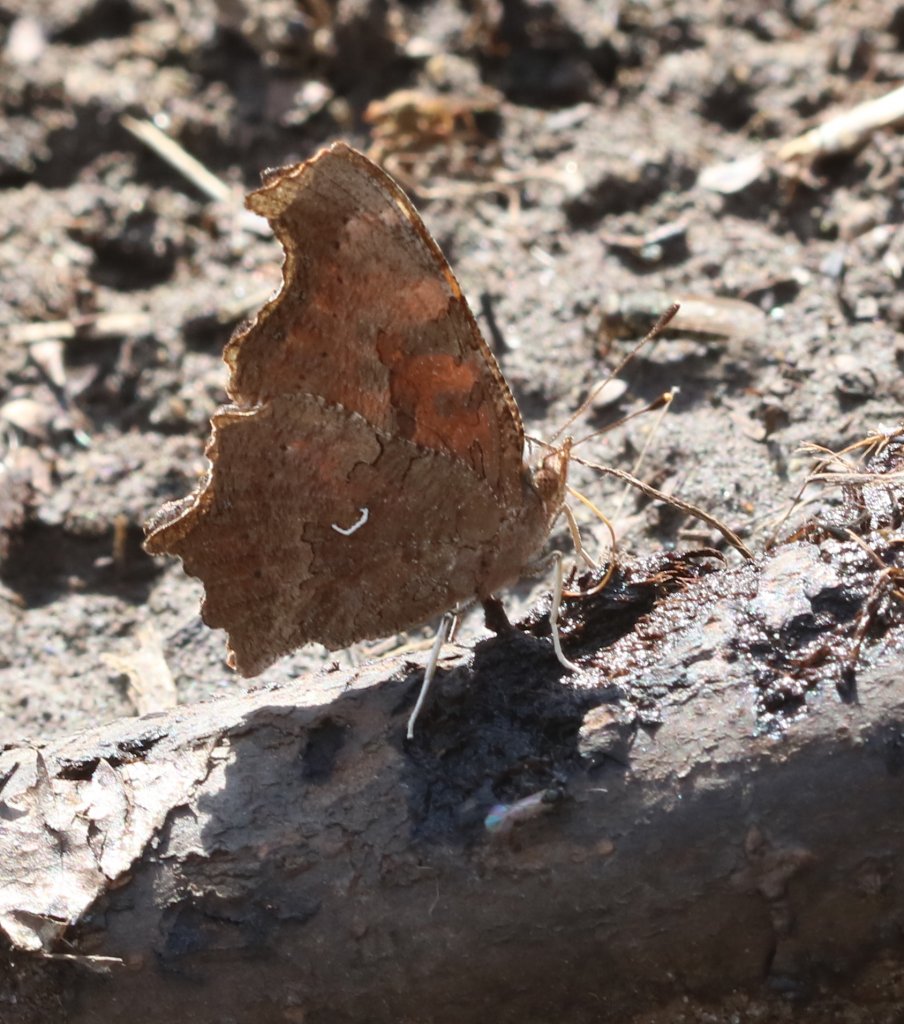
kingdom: Animalia
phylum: Arthropoda
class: Insecta
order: Lepidoptera
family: Nymphalidae
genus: Polygonia
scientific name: Polygonia comma
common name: Eastern Comma
